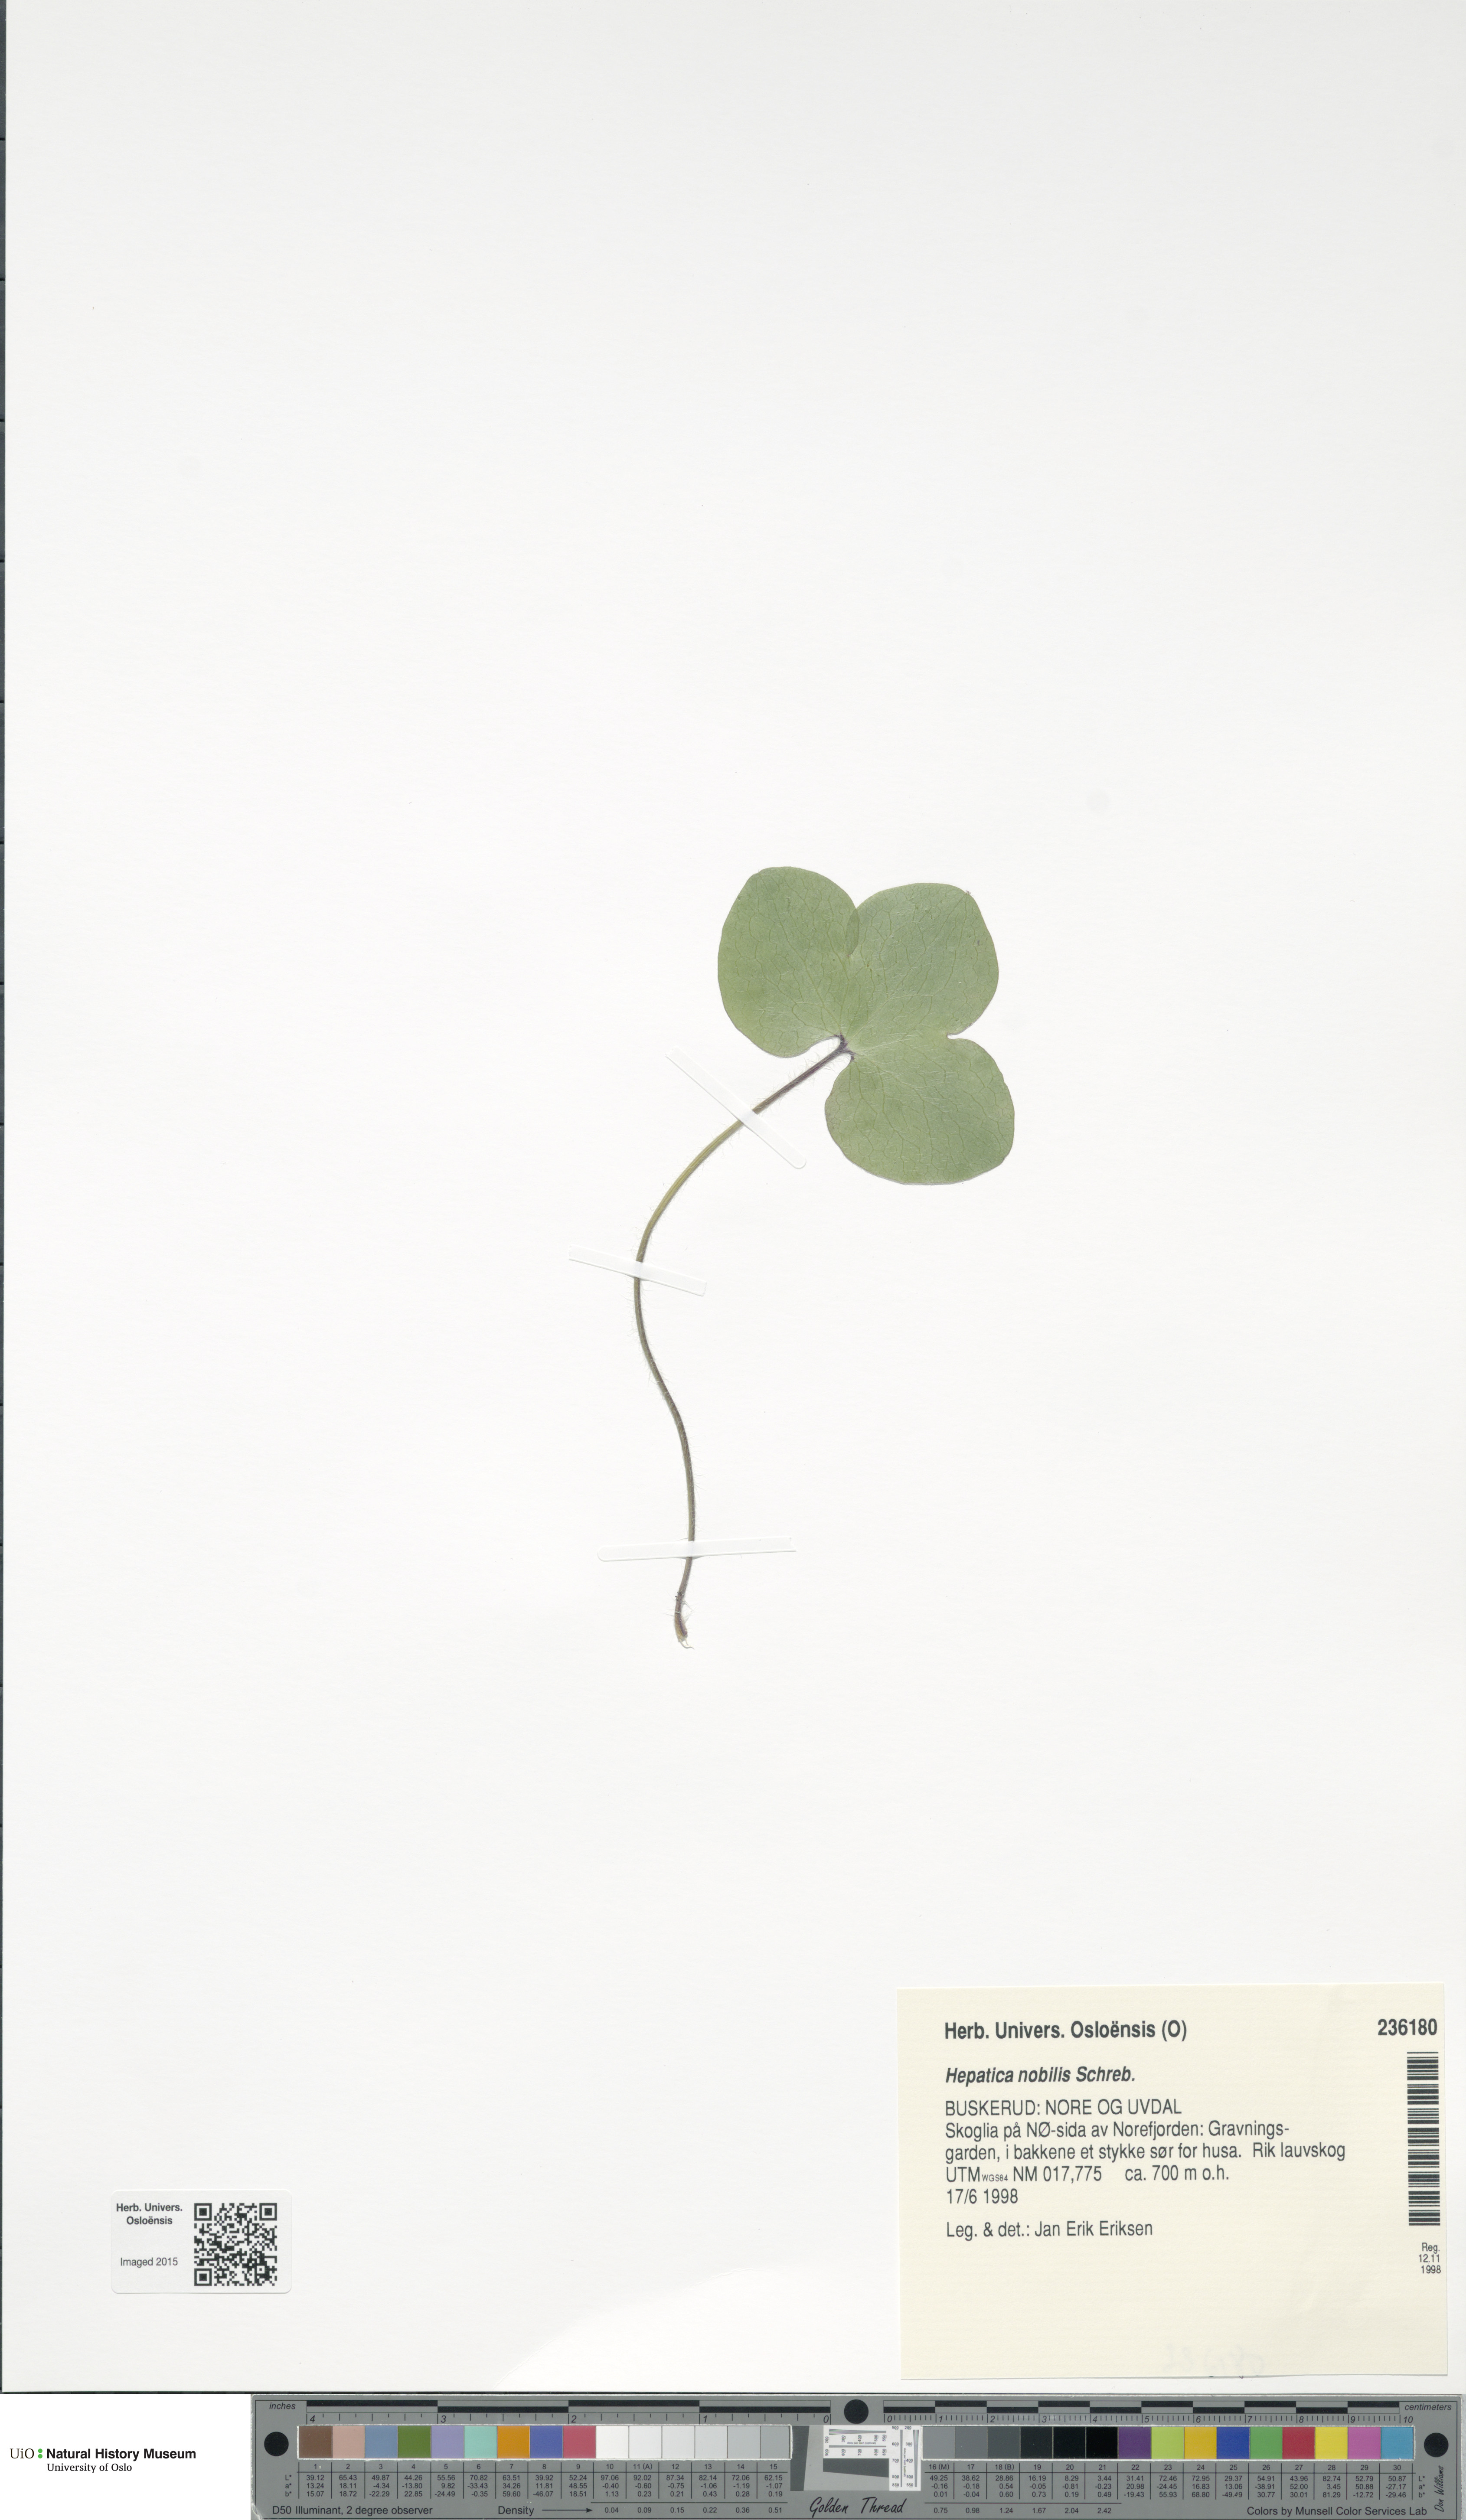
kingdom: Plantae
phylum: Tracheophyta
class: Magnoliopsida
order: Ranunculales
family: Ranunculaceae
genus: Hepatica
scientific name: Hepatica nobilis
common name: Liverleaf
